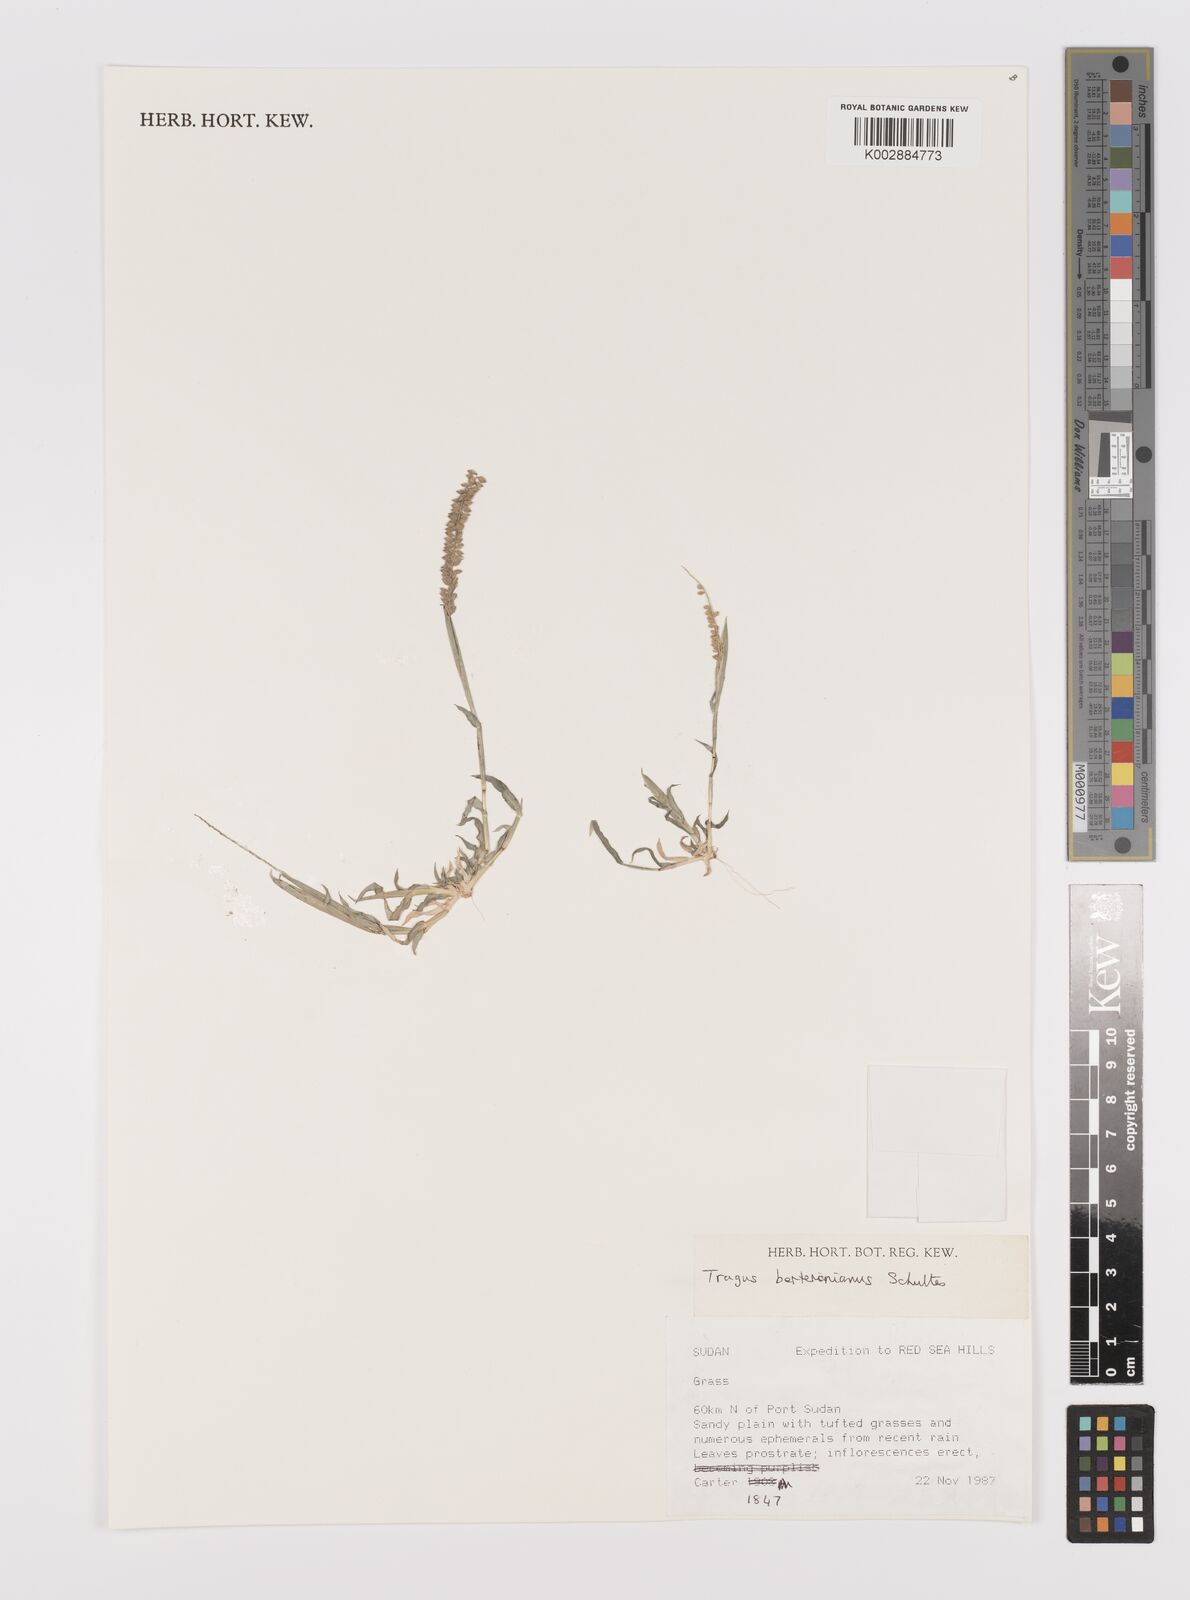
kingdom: Plantae
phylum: Tracheophyta
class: Liliopsida
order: Poales
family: Poaceae
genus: Tragus
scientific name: Tragus berteronianus
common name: African bur-grass
